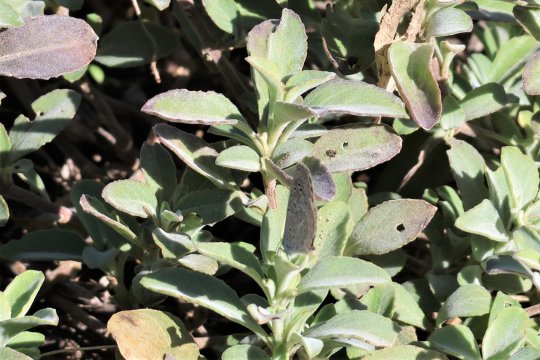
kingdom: Animalia
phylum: Arthropoda
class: Insecta
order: Lepidoptera
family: Lycaenidae
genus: Lycaena
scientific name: Lycaena cyna
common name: Cyna Blue
